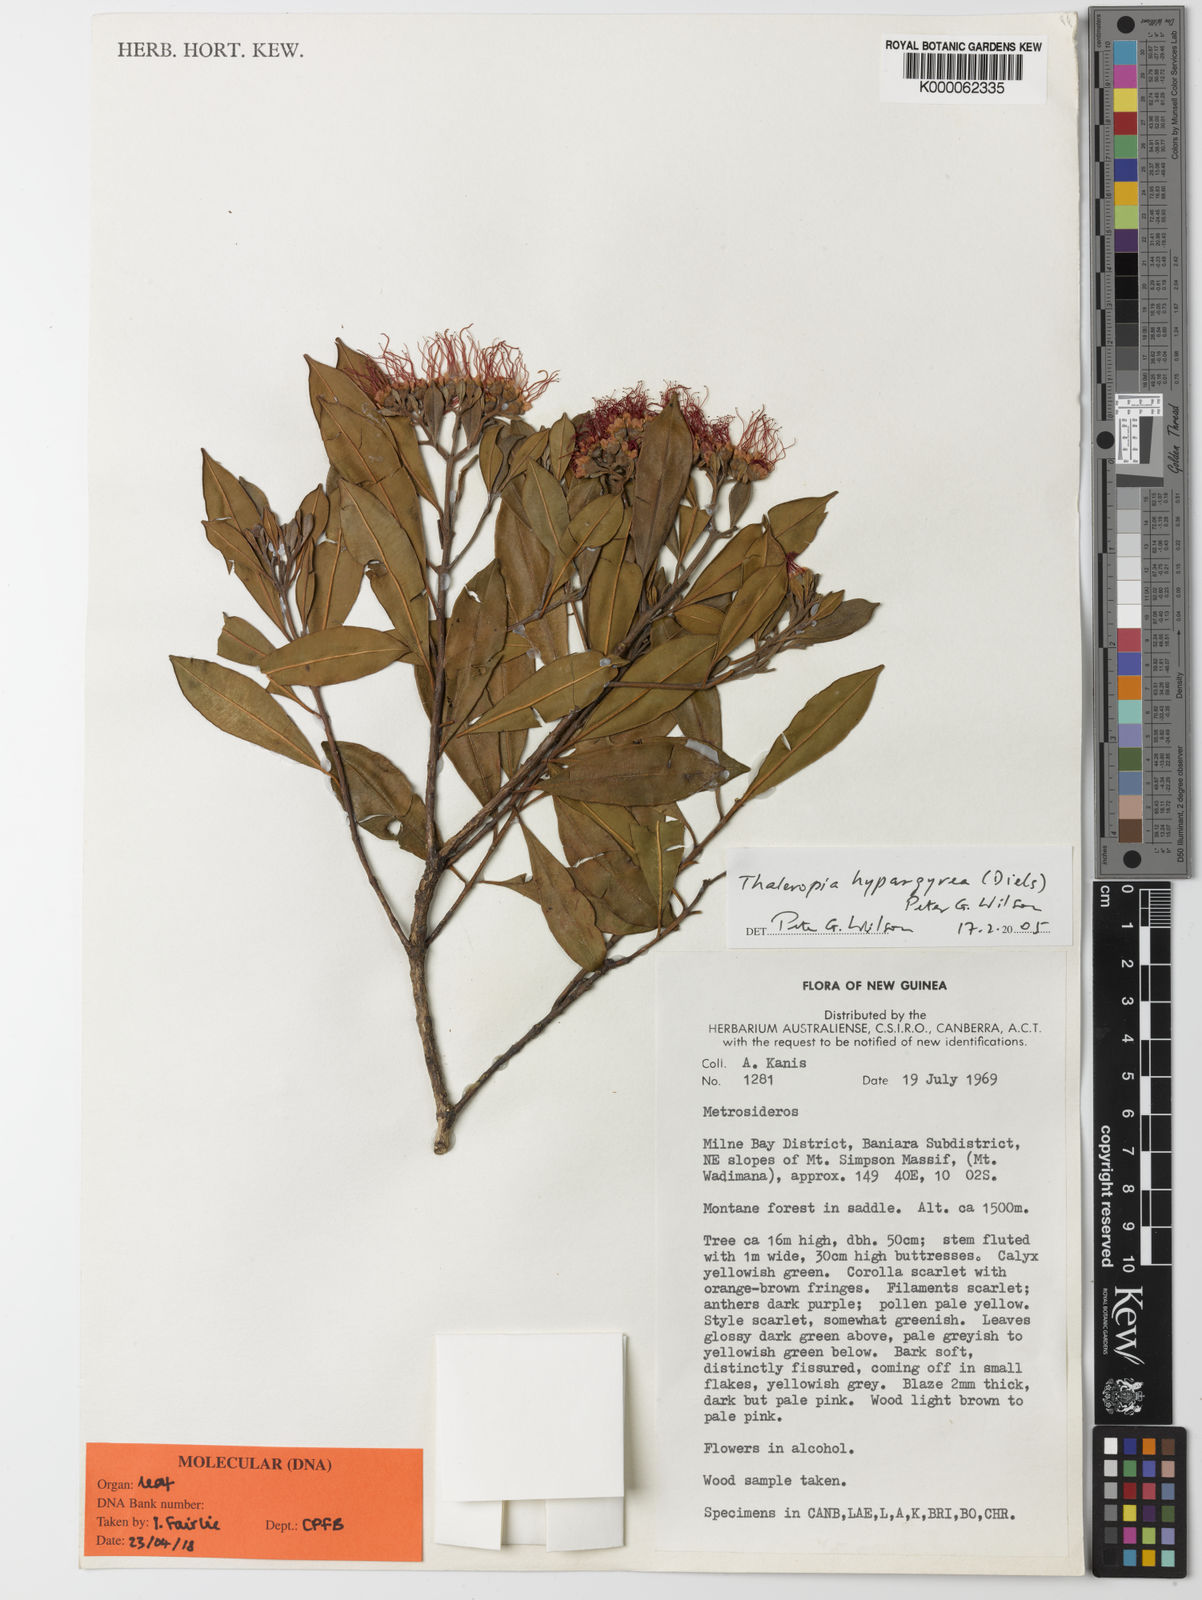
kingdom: Plantae
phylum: Tracheophyta
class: Magnoliopsida
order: Myrtales
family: Myrtaceae
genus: Thaleropia
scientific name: Thaleropia hypargyrea
